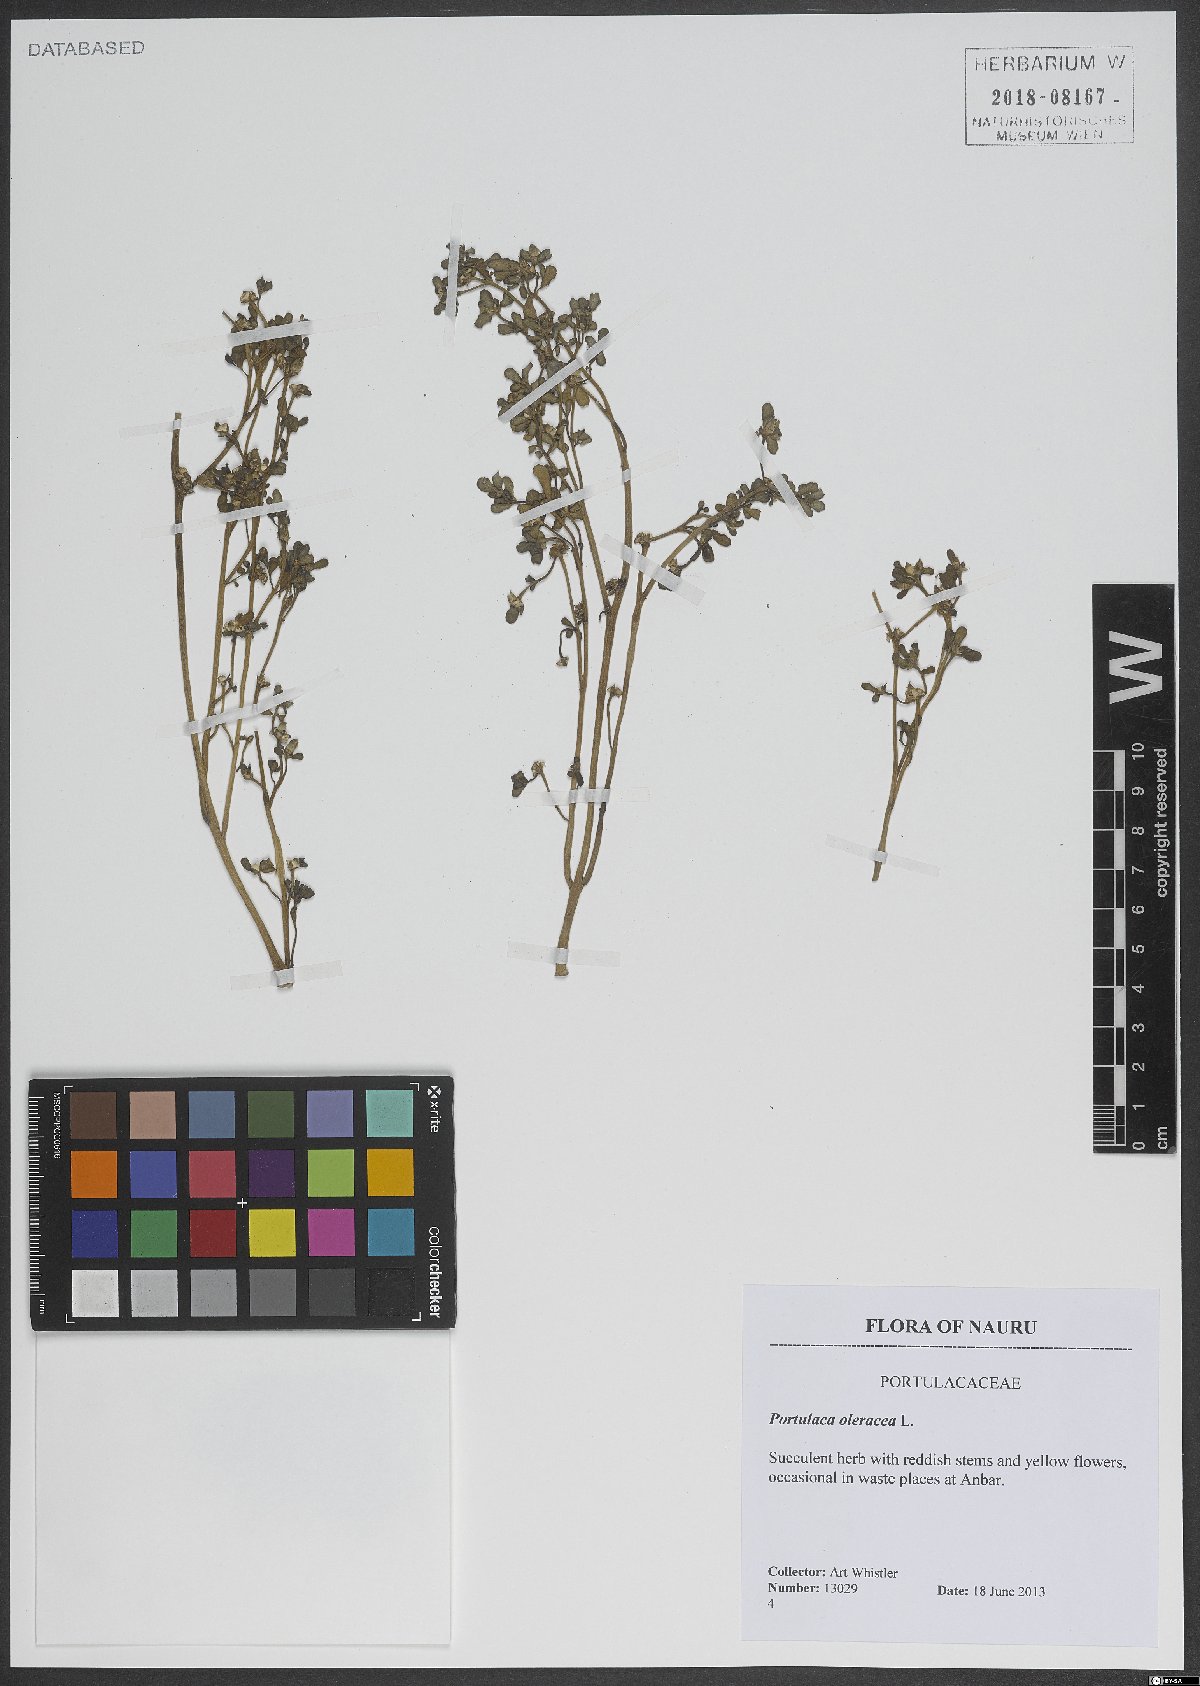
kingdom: Plantae
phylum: Tracheophyta
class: Magnoliopsida
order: Caryophyllales
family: Portulacaceae
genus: Portulaca
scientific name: Portulaca oleracea
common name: Common purslane
